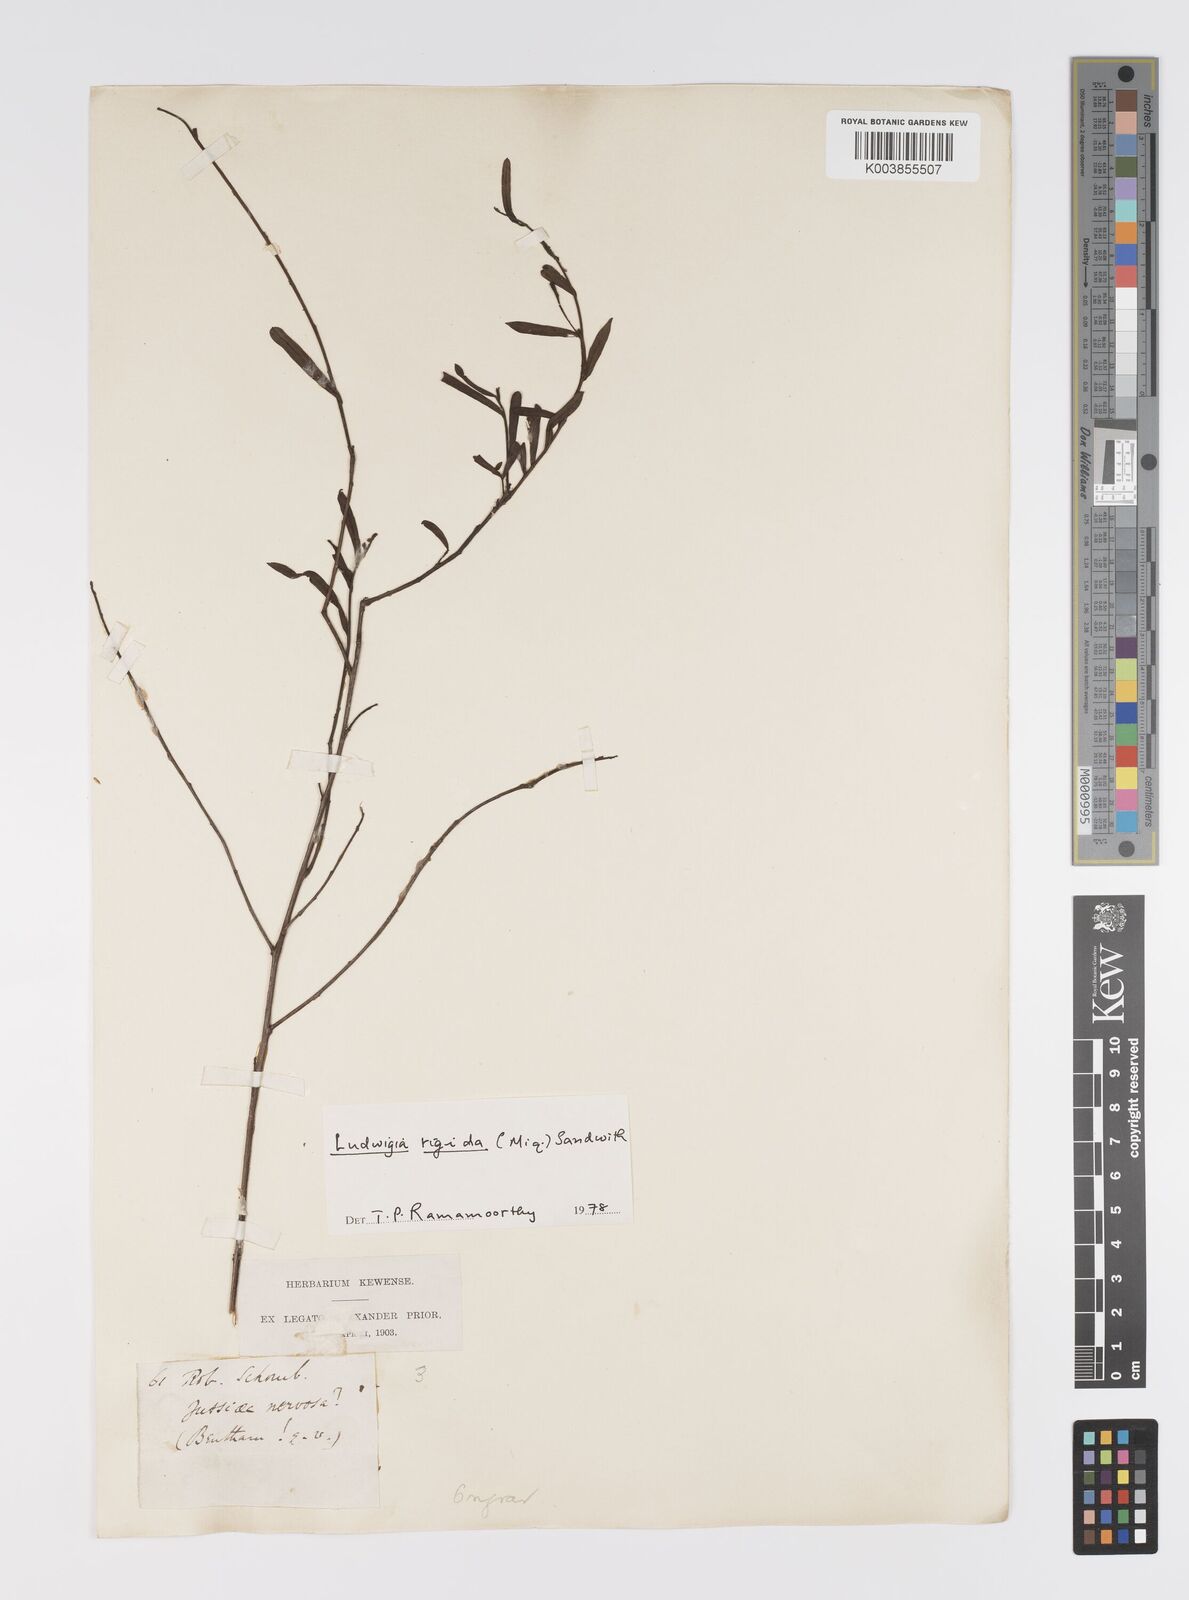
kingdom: Plantae
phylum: Tracheophyta
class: Magnoliopsida
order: Myrtales
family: Onagraceae
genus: Ludwigia
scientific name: Ludwigia rigida
